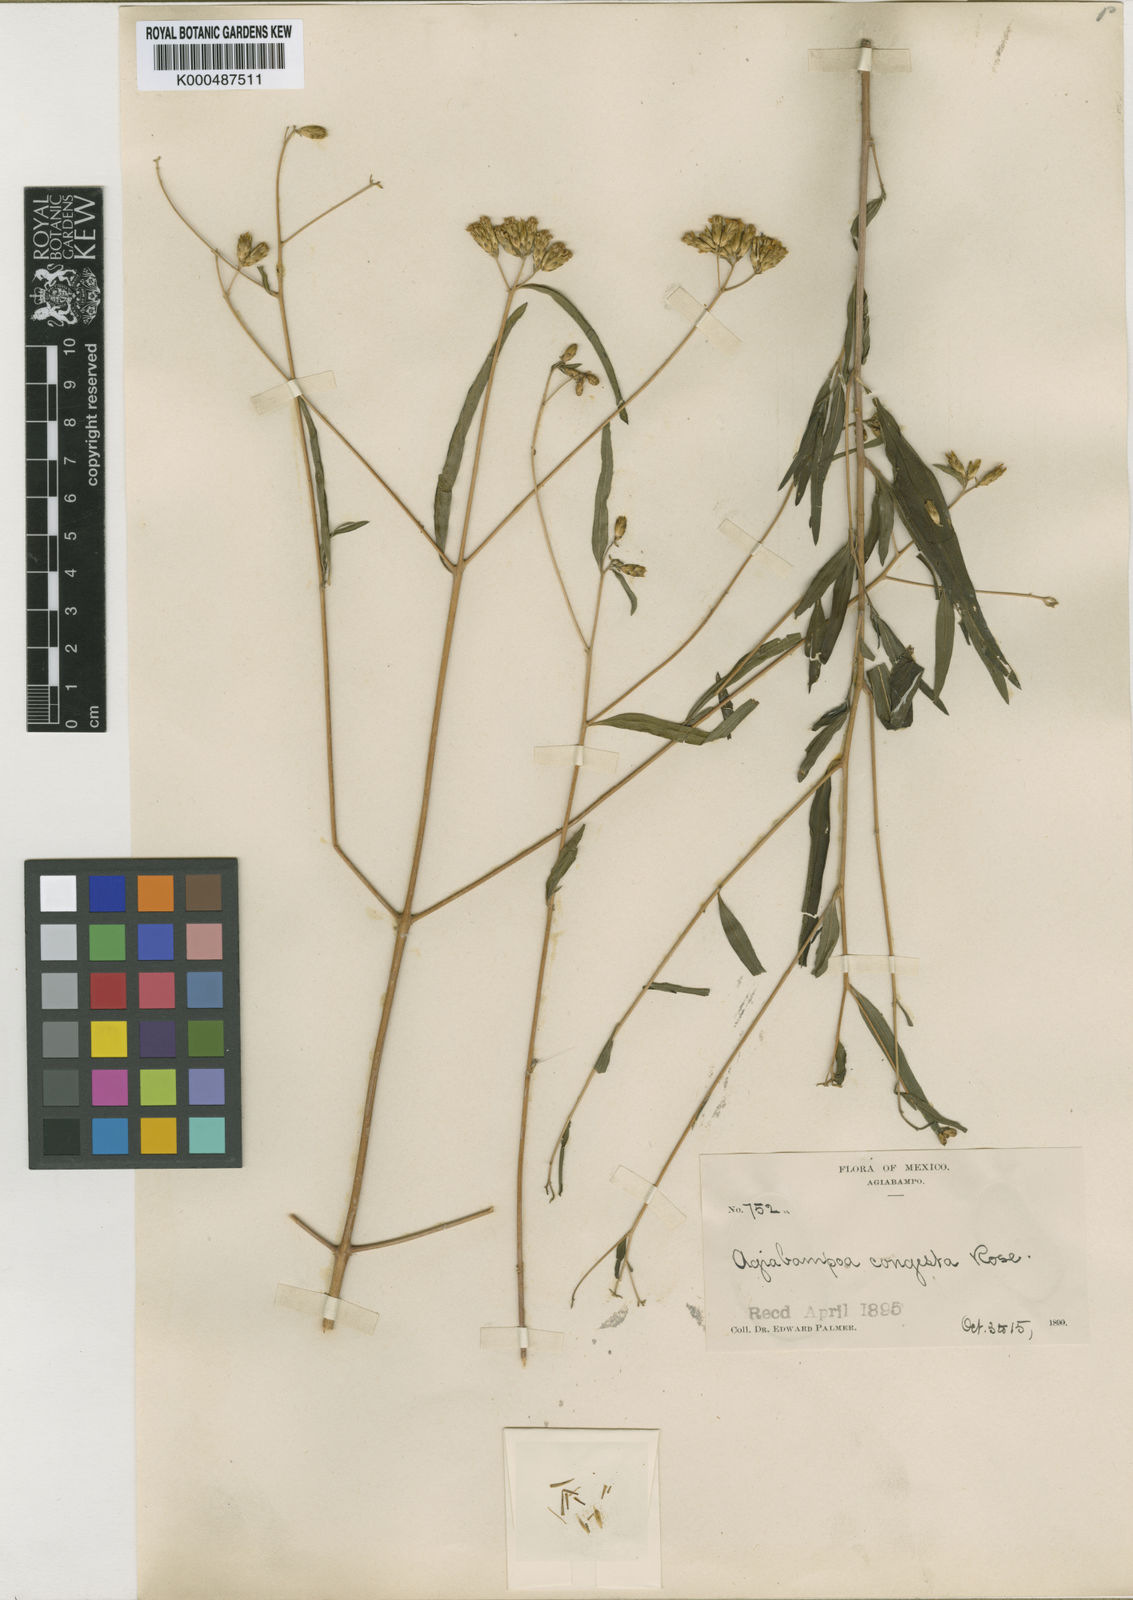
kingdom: Plantae
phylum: Tracheophyta
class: Magnoliopsida
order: Asterales
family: Asteraceae
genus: Aldama
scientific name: Aldama
